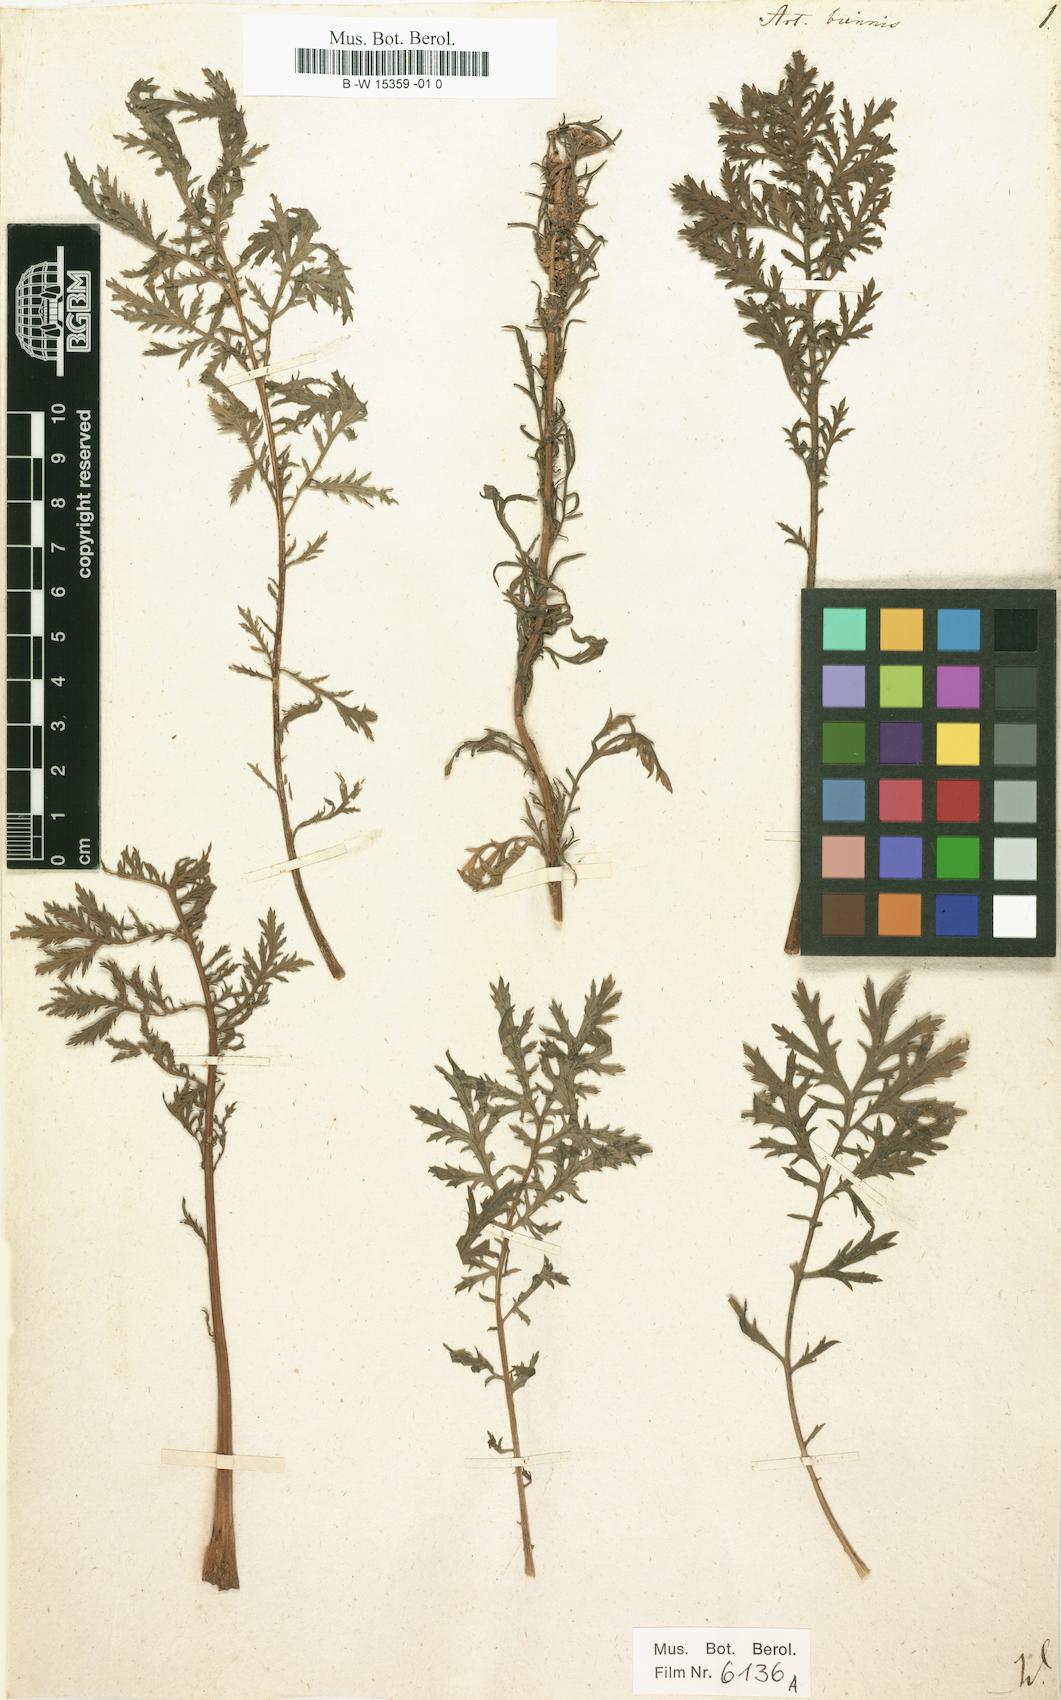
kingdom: Plantae
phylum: Tracheophyta
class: Magnoliopsida
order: Asterales
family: Asteraceae
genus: Artemisia
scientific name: Artemisia biennis
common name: Biennial wormwood
